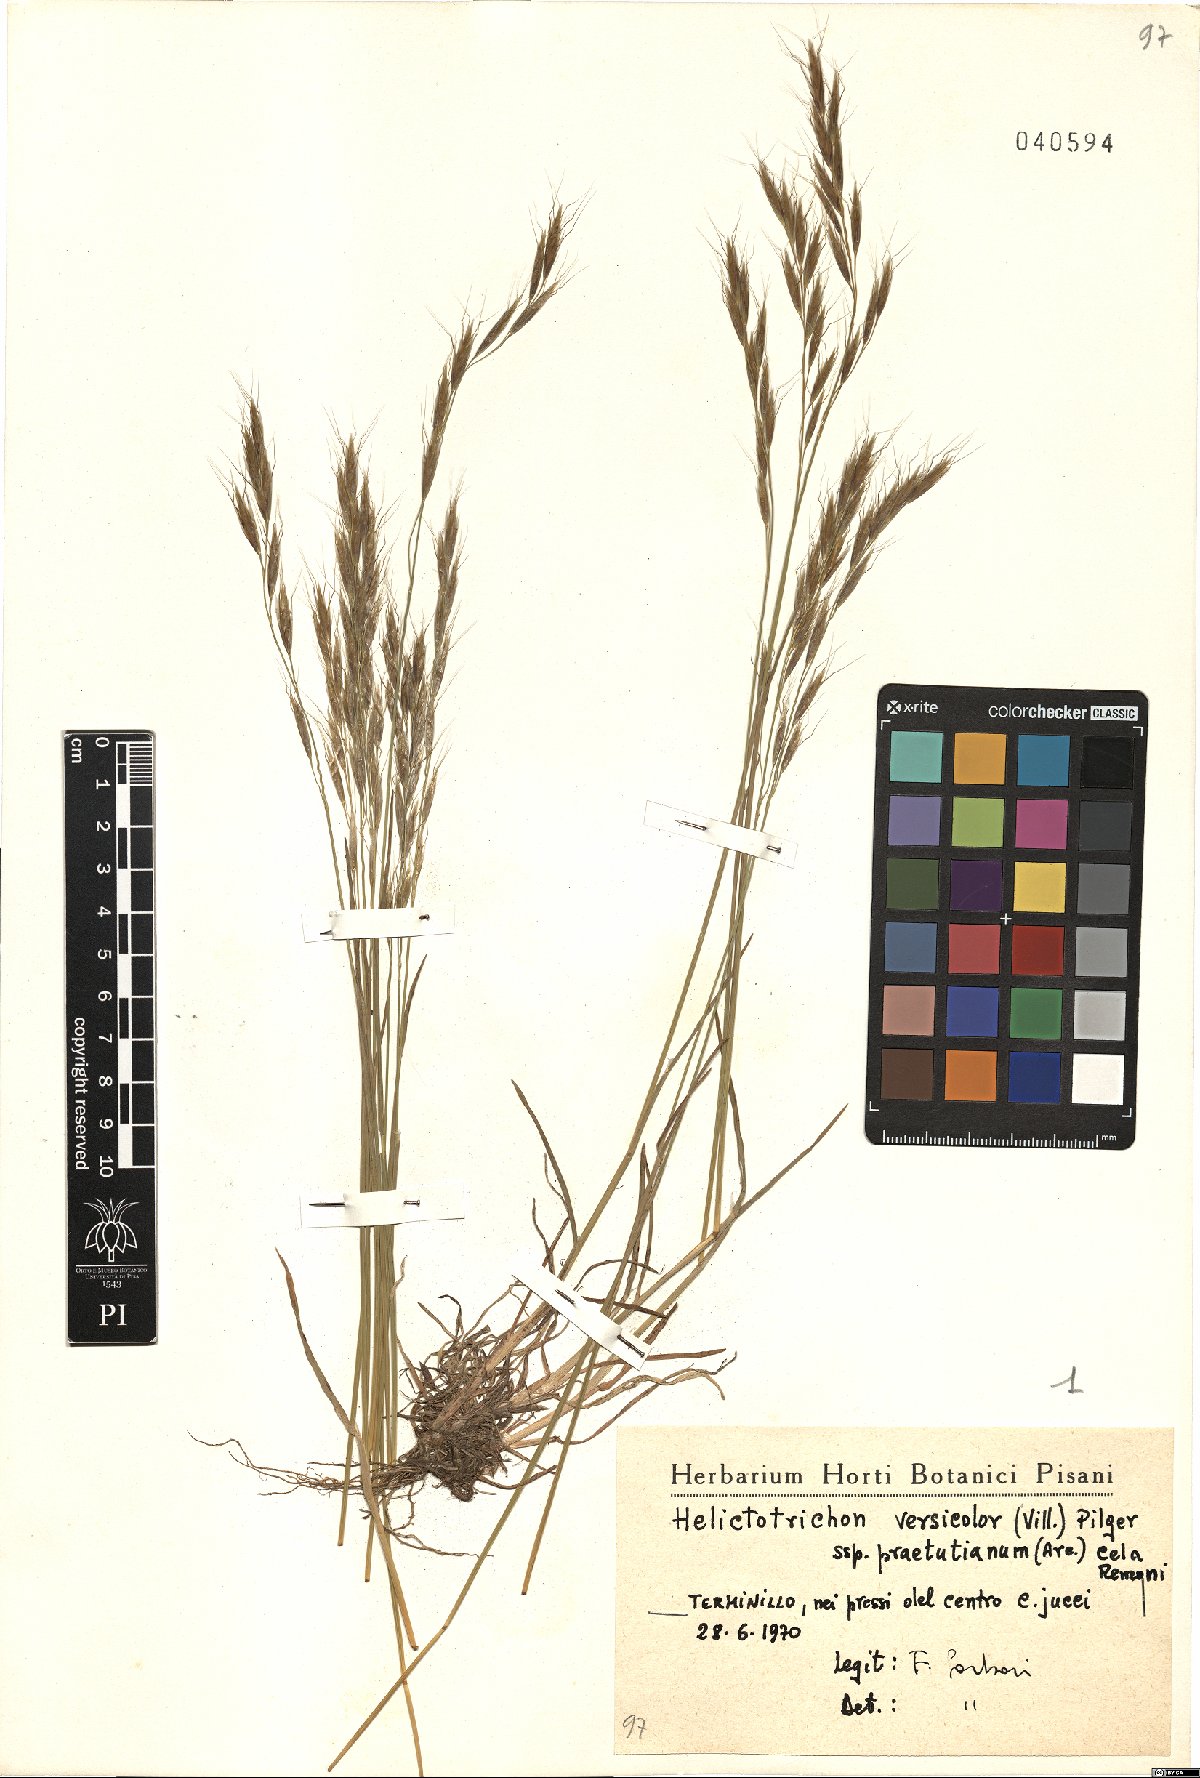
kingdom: Plantae
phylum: Tracheophyta
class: Liliopsida
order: Poales
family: Poaceae
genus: Helictochloa
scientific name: Helictochloa versicolor
